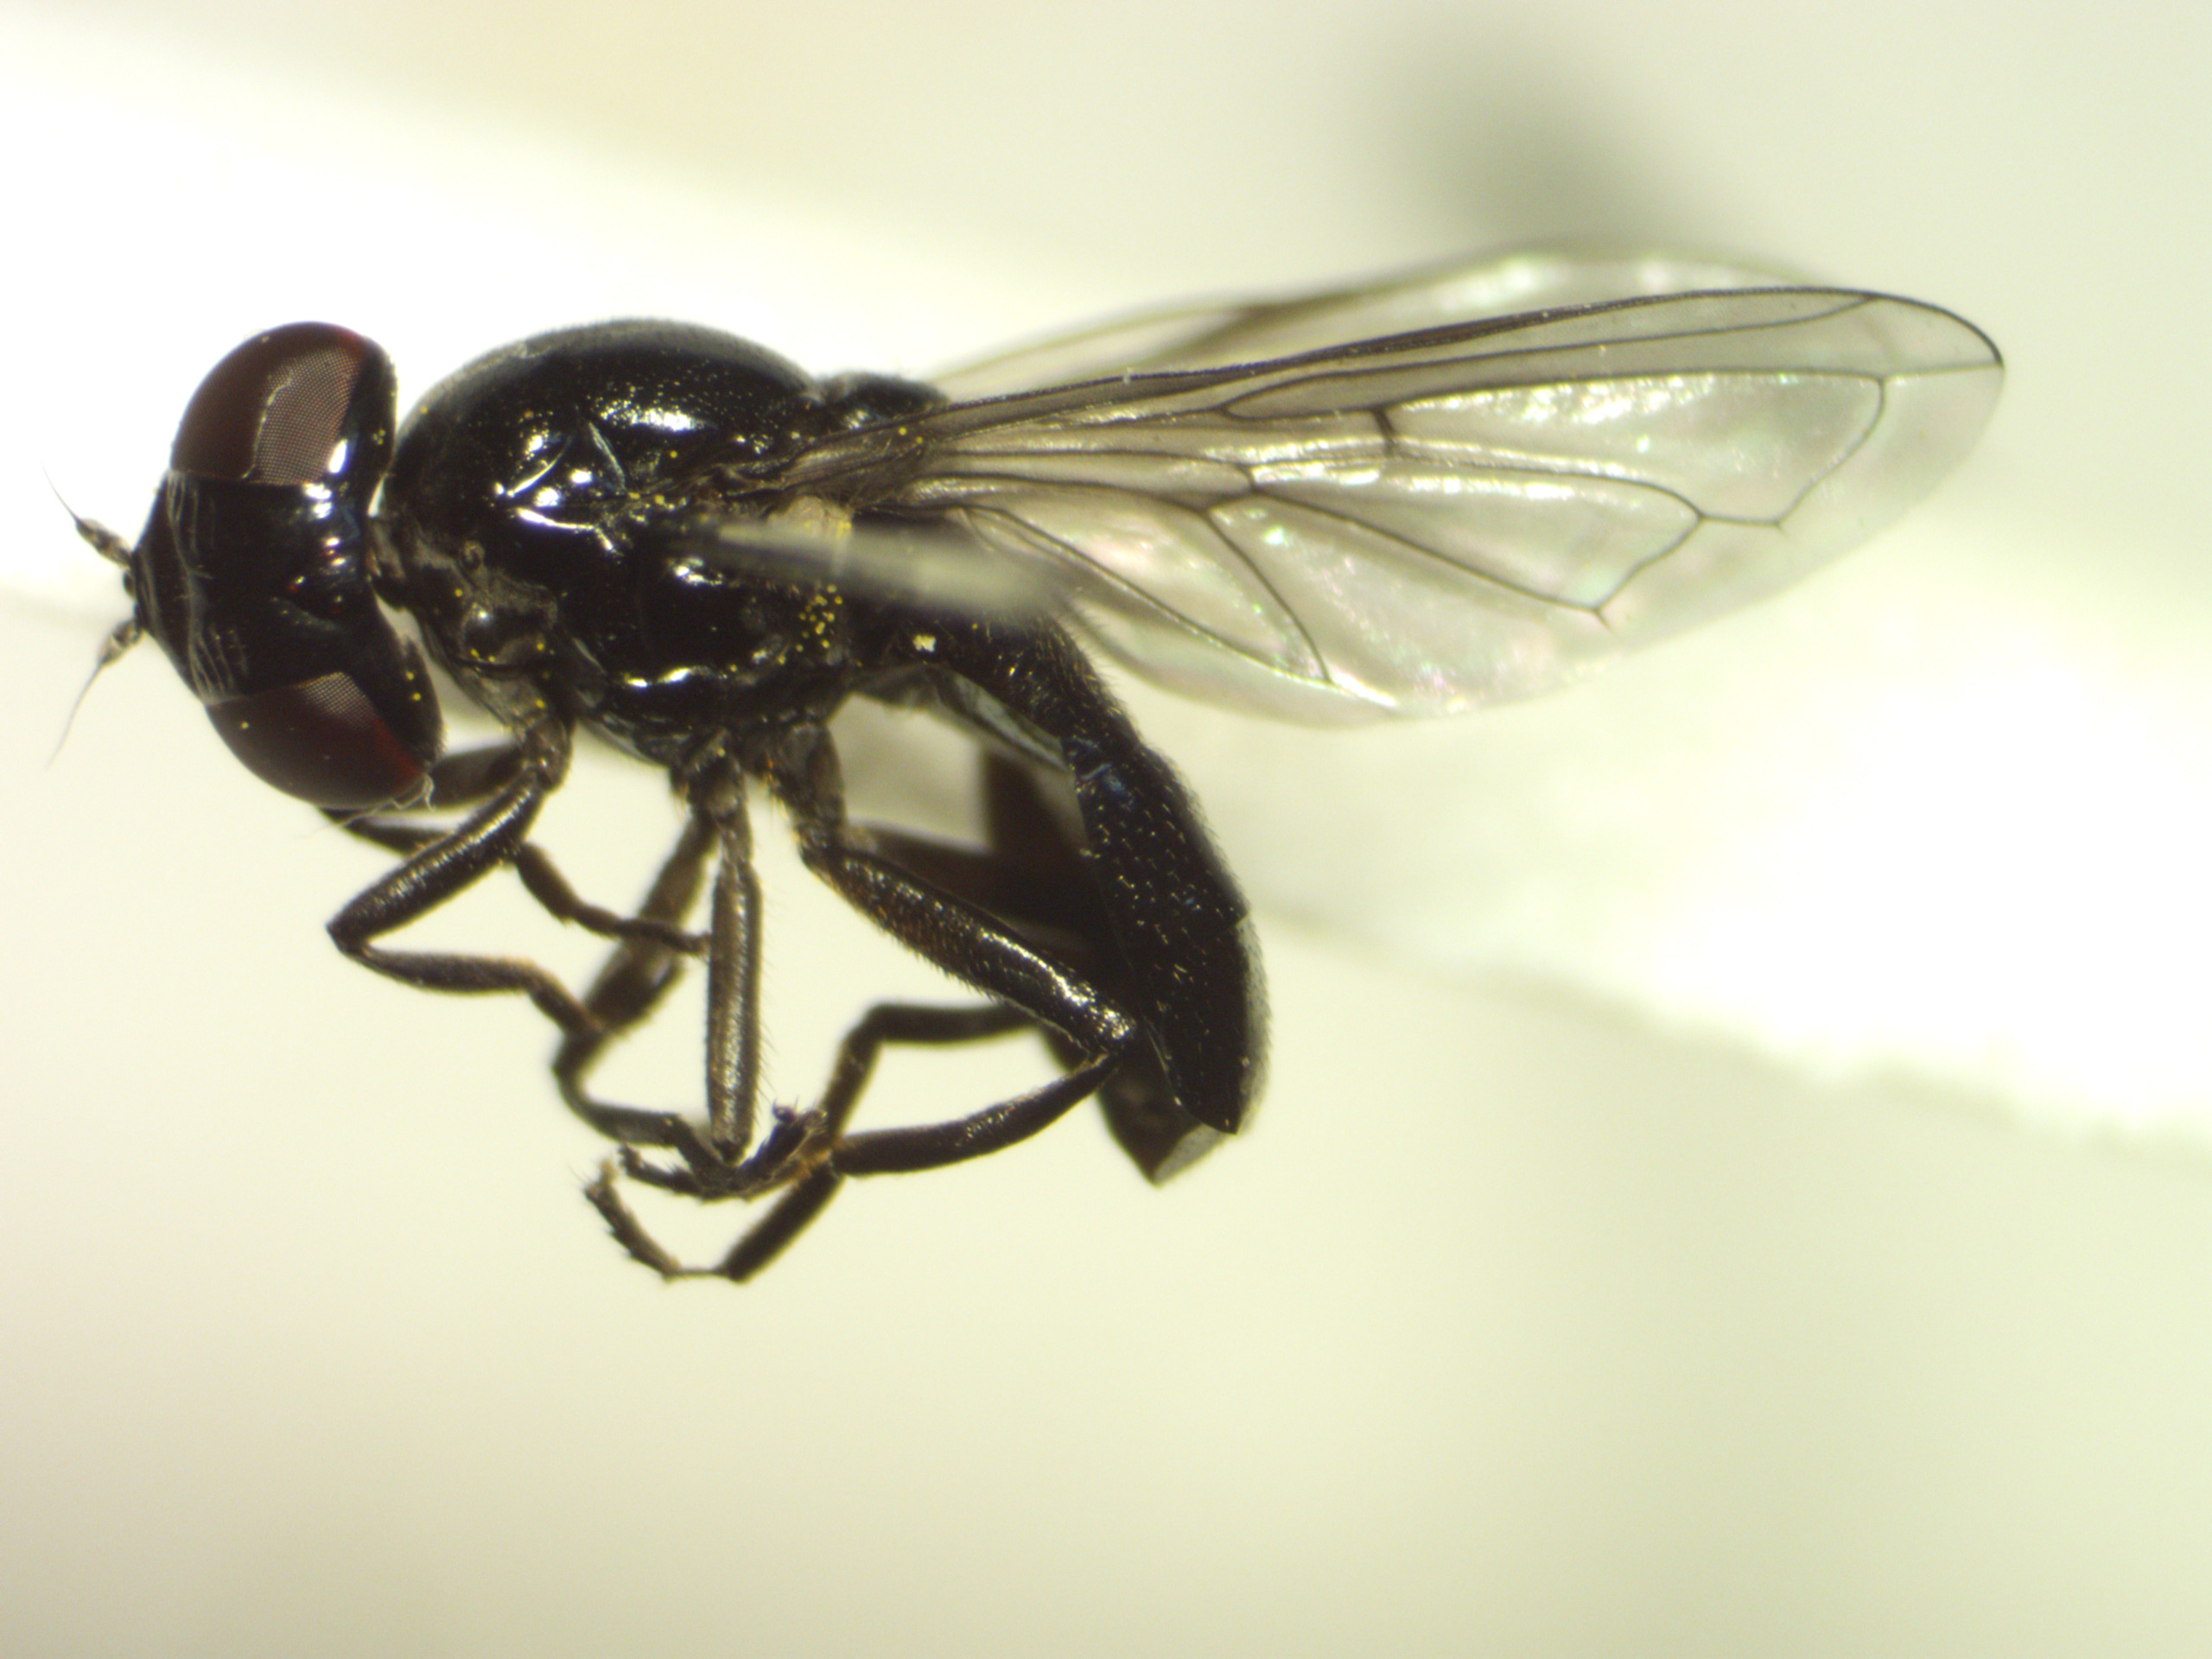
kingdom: Animalia
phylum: Arthropoda
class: Insecta
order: Diptera
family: Syrphidae
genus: Lejogaster
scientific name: Lejogaster metallina
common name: Sort metalsvirreflue
